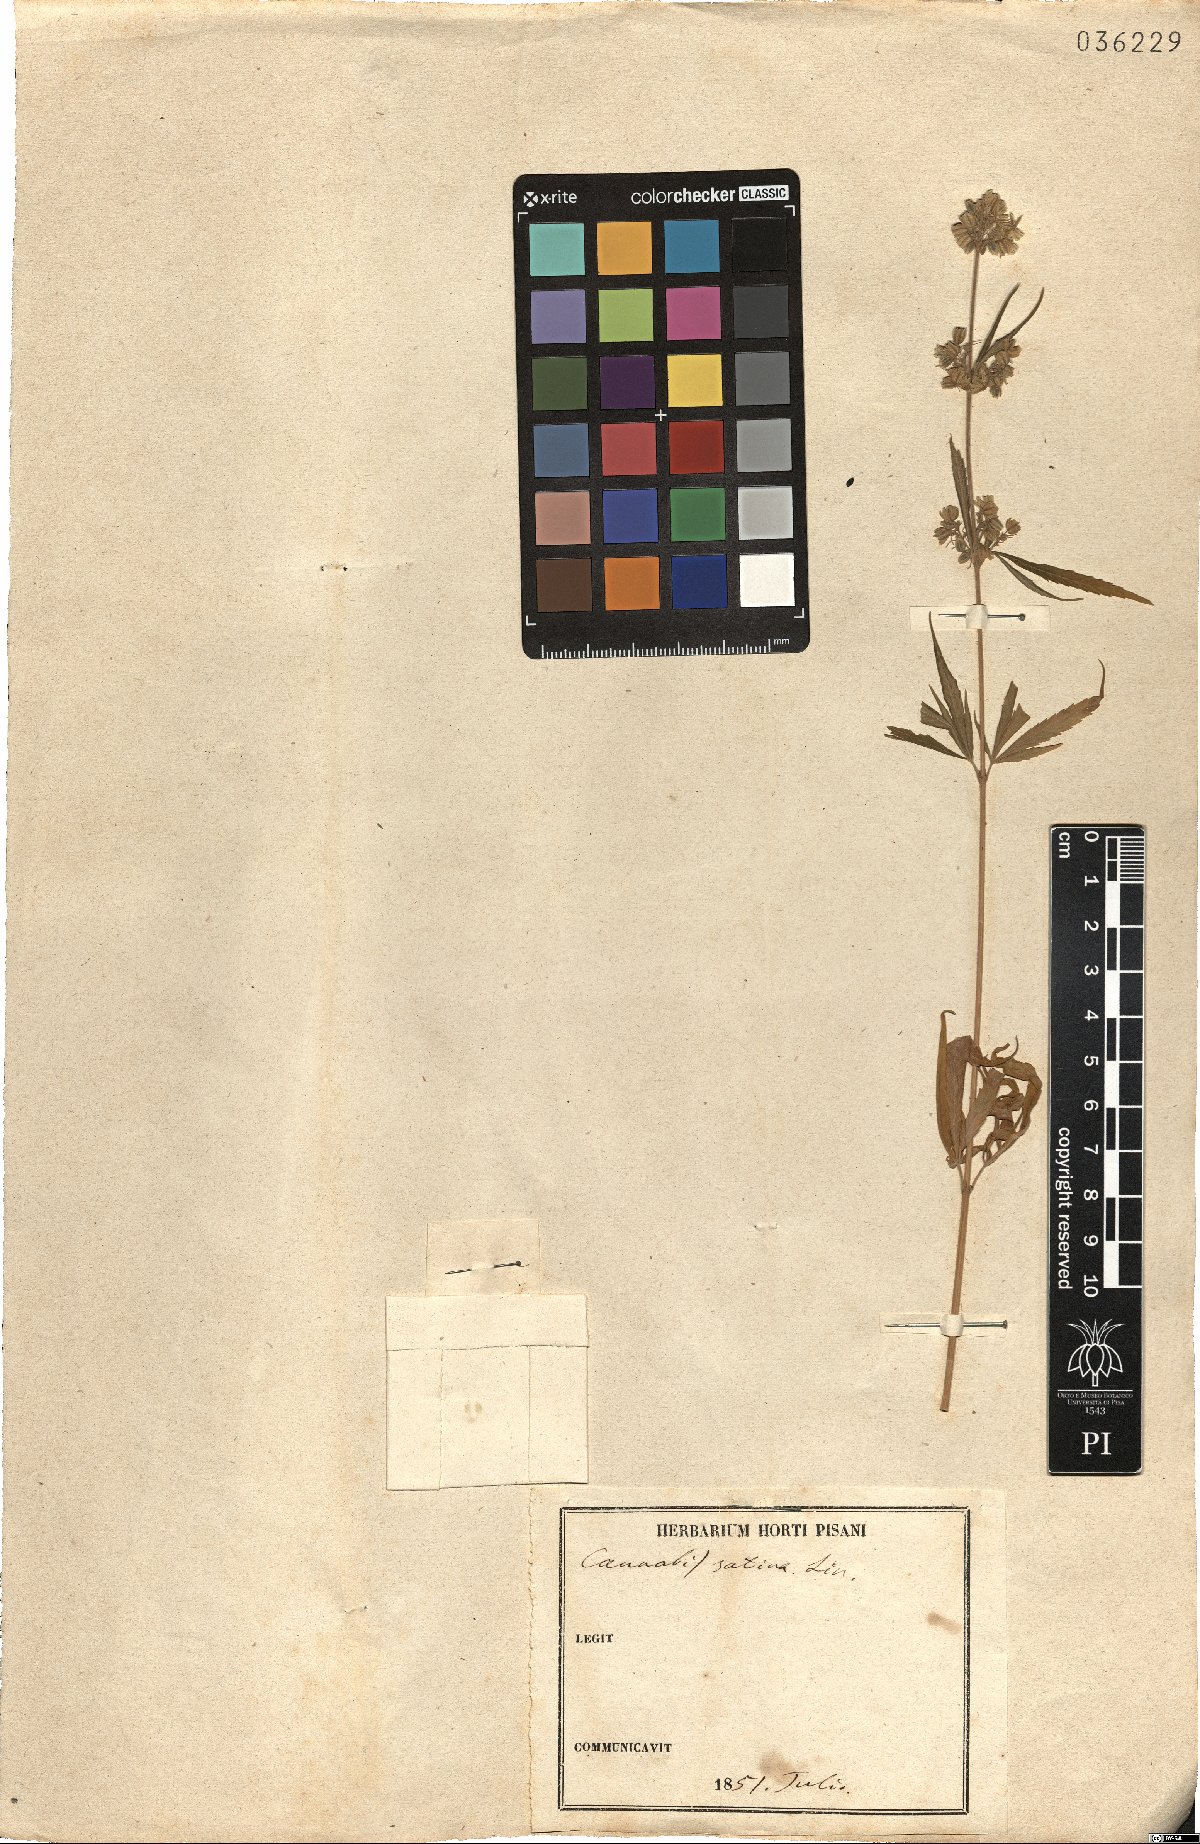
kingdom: Plantae
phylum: Tracheophyta
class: Magnoliopsida
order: Rosales
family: Cannabaceae
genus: Cannabis
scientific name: Cannabis sativa
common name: Hemp
